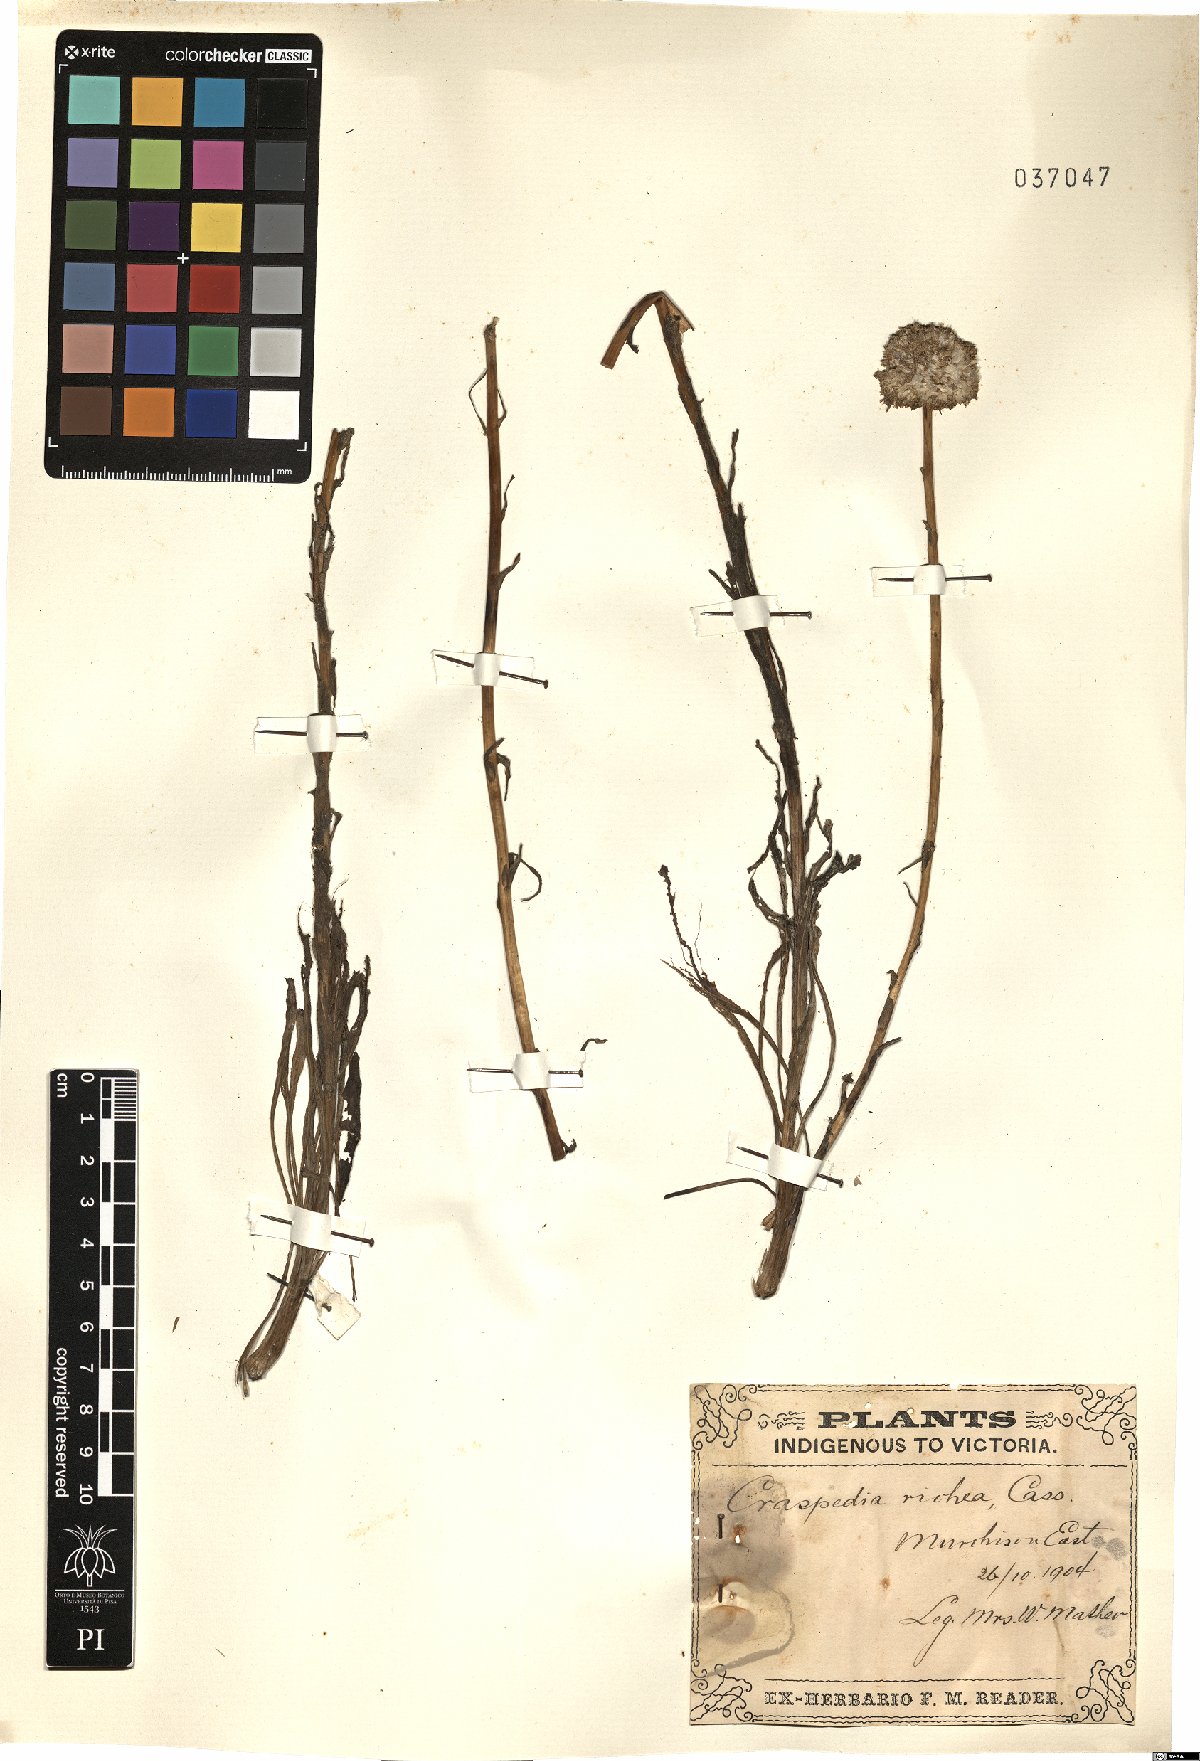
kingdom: Plantae
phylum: Tracheophyta
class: Magnoliopsida
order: Asterales
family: Asteraceae
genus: Craspedia
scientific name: Craspedia glauca
